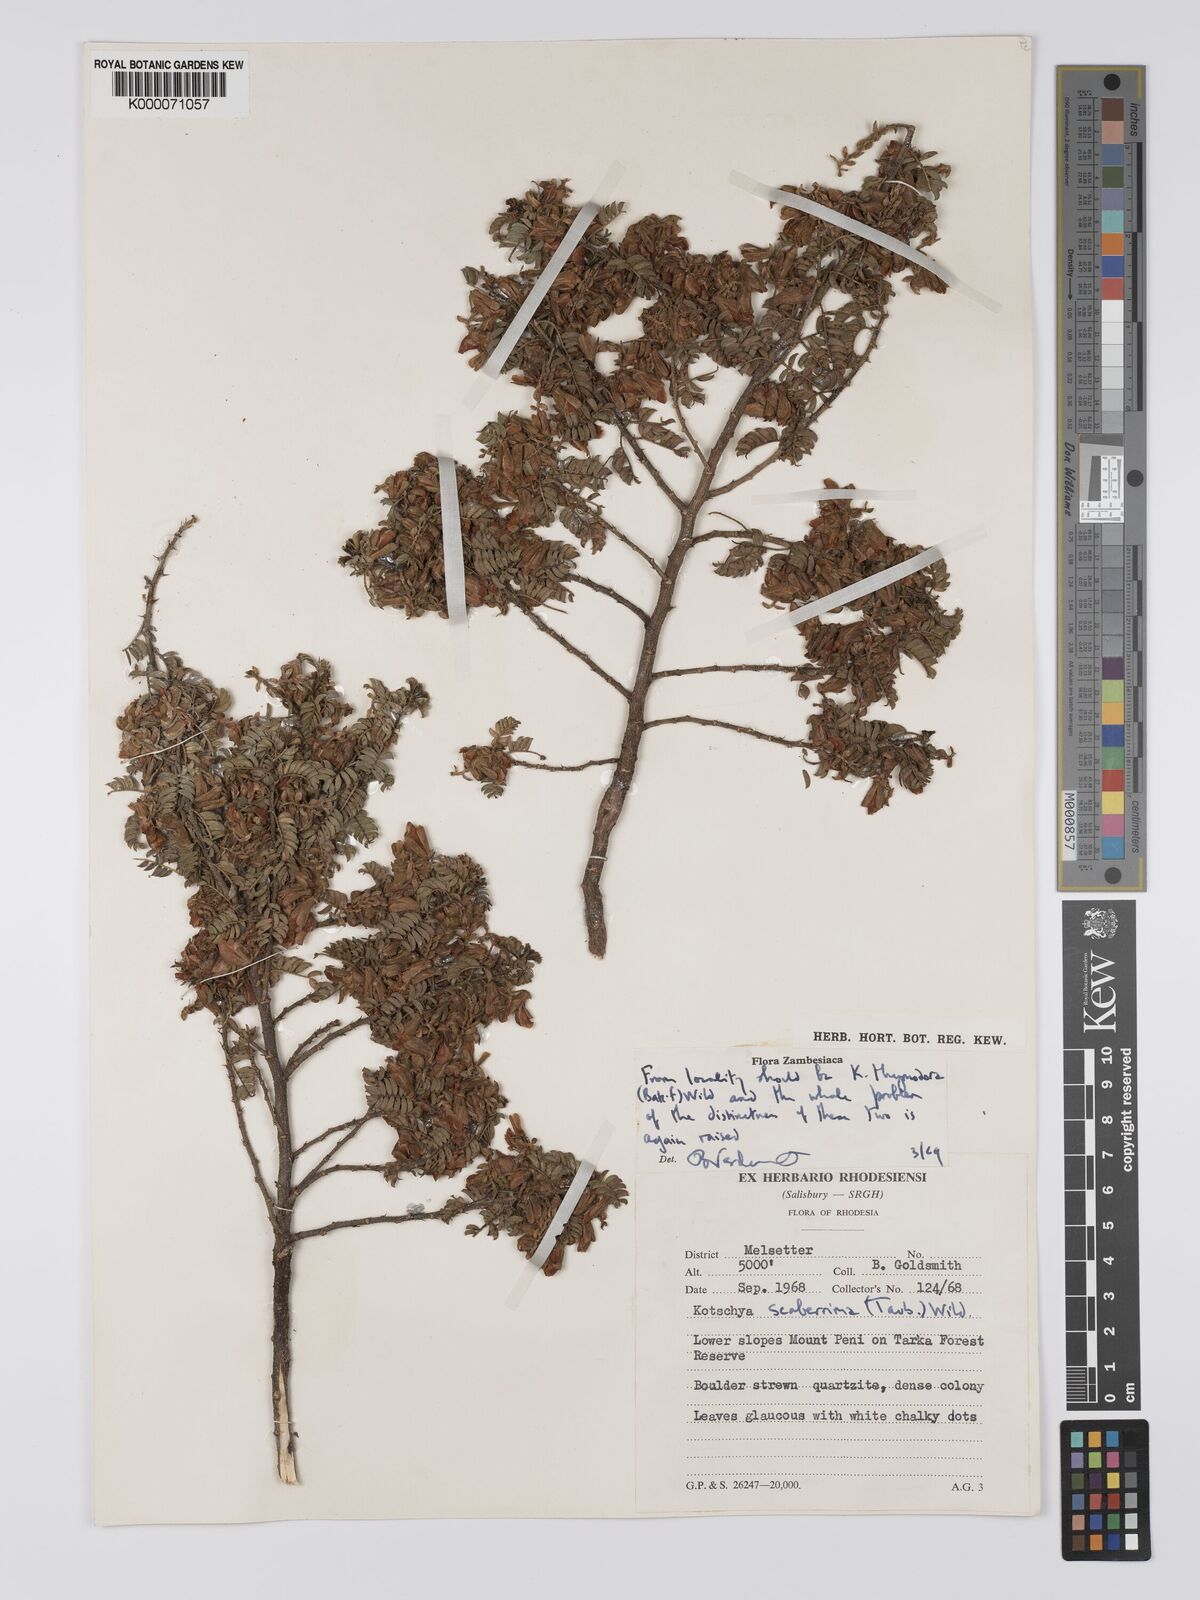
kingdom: Plantae
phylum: Tracheophyta
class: Magnoliopsida
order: Fabales
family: Fabaceae
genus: Kotschya
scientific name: Kotschya scaberrima
